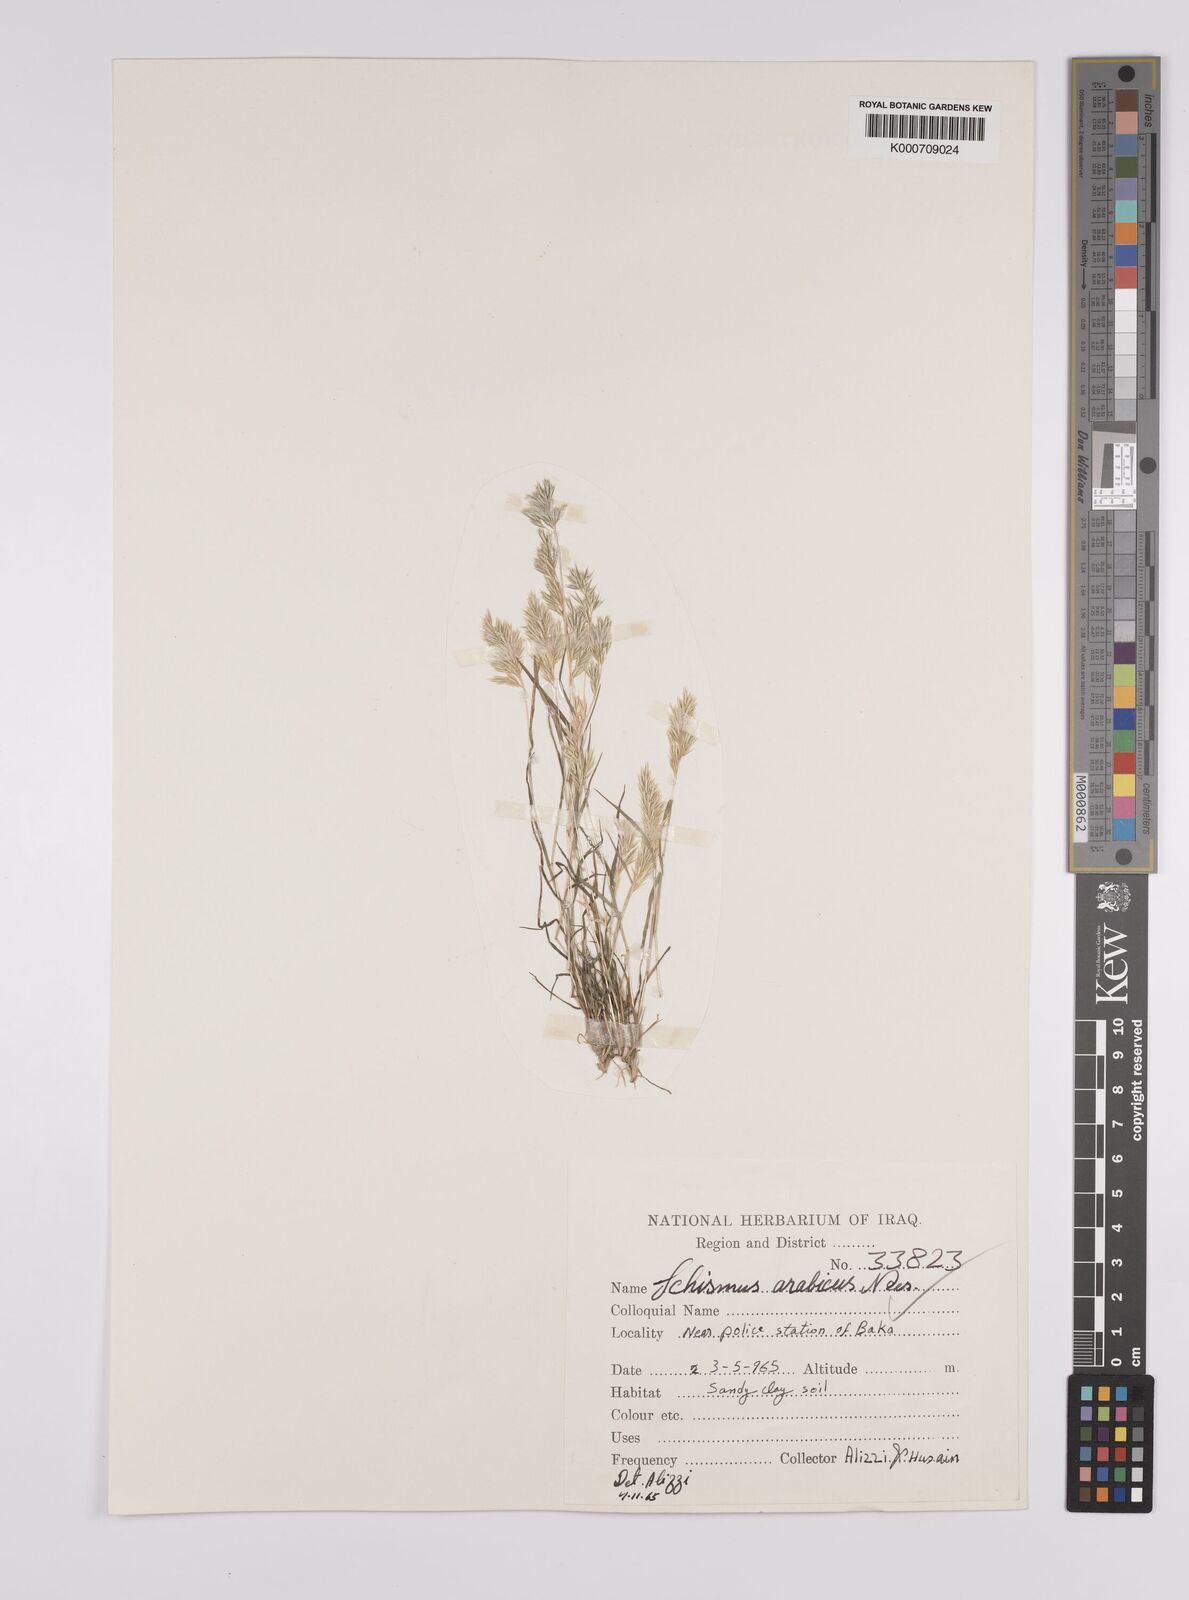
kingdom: Plantae
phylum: Tracheophyta
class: Liliopsida
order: Poales
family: Poaceae
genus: Schismus
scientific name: Schismus arabicus
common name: Arabian schismus
